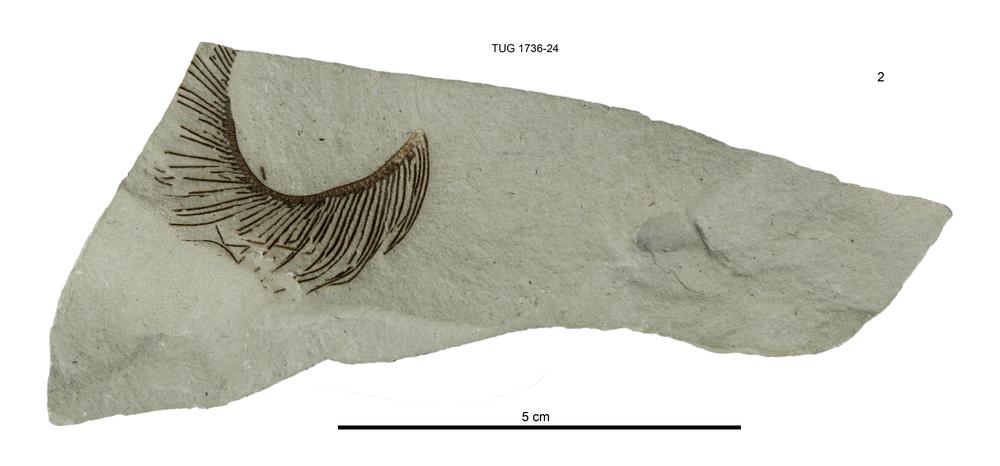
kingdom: Animalia
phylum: Echinodermata
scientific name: Echinodermata
